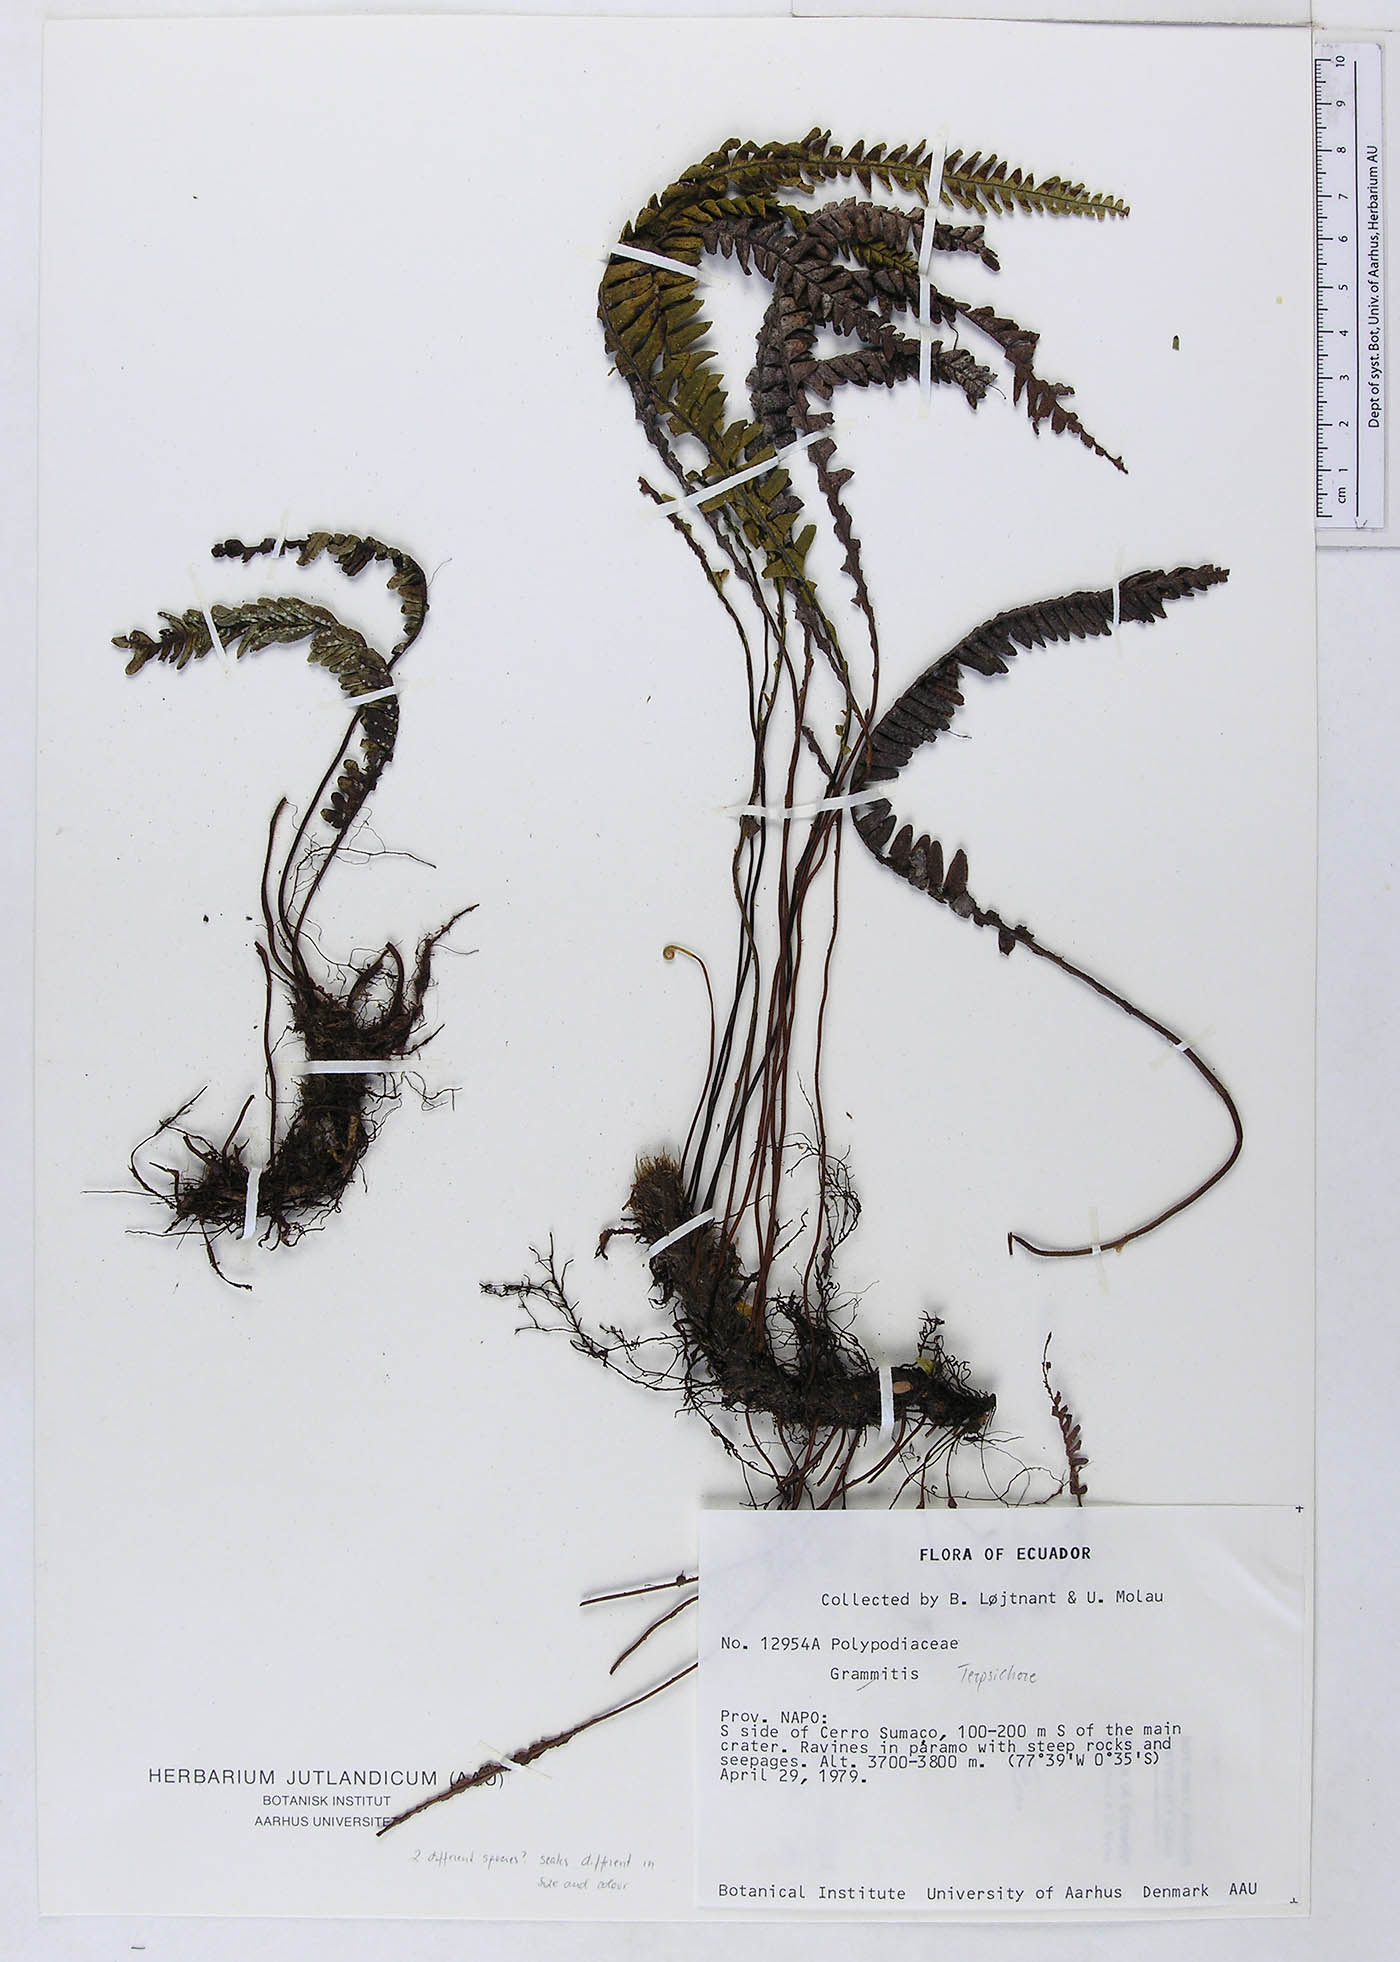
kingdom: Plantae
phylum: Tracheophyta
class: Polypodiopsida
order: Polypodiales
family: Polypodiaceae
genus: Lellingeria
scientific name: Lellingeria
